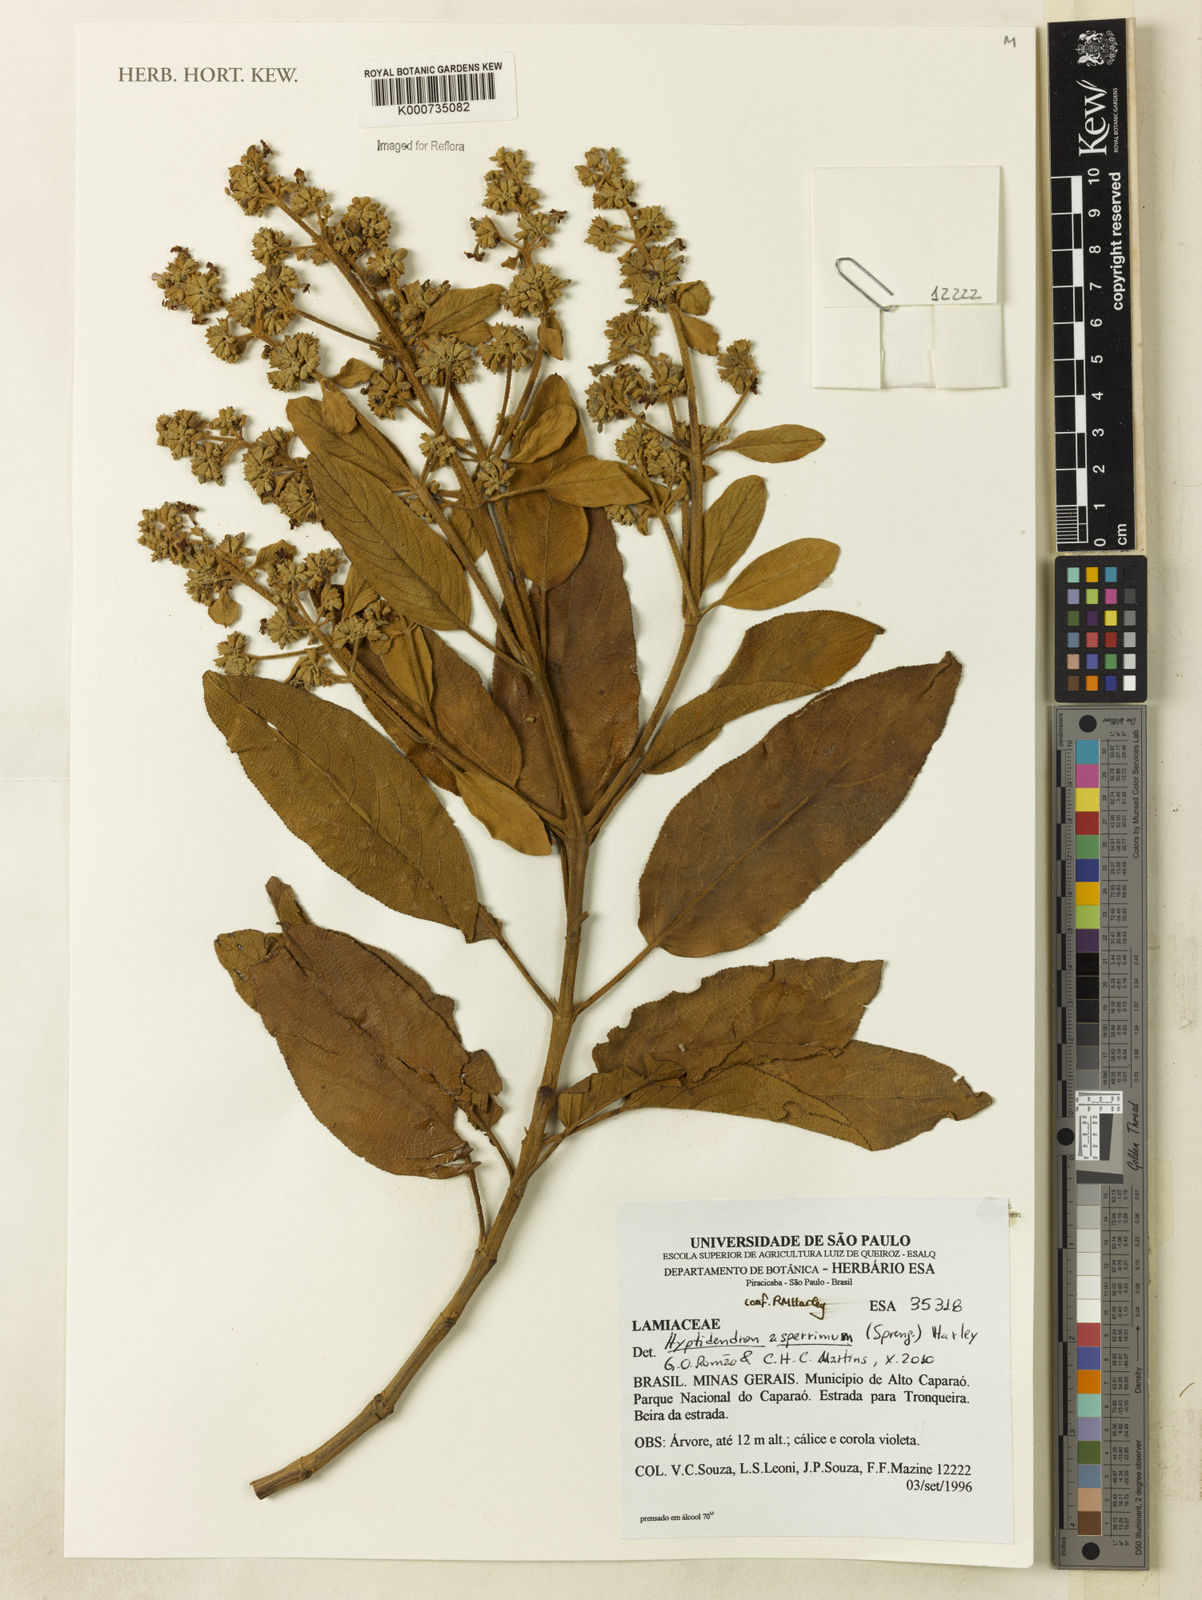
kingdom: Plantae
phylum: Tracheophyta
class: Magnoliopsida
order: Lamiales
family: Lamiaceae
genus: Hyptidendron
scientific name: Hyptidendron asperrimum
